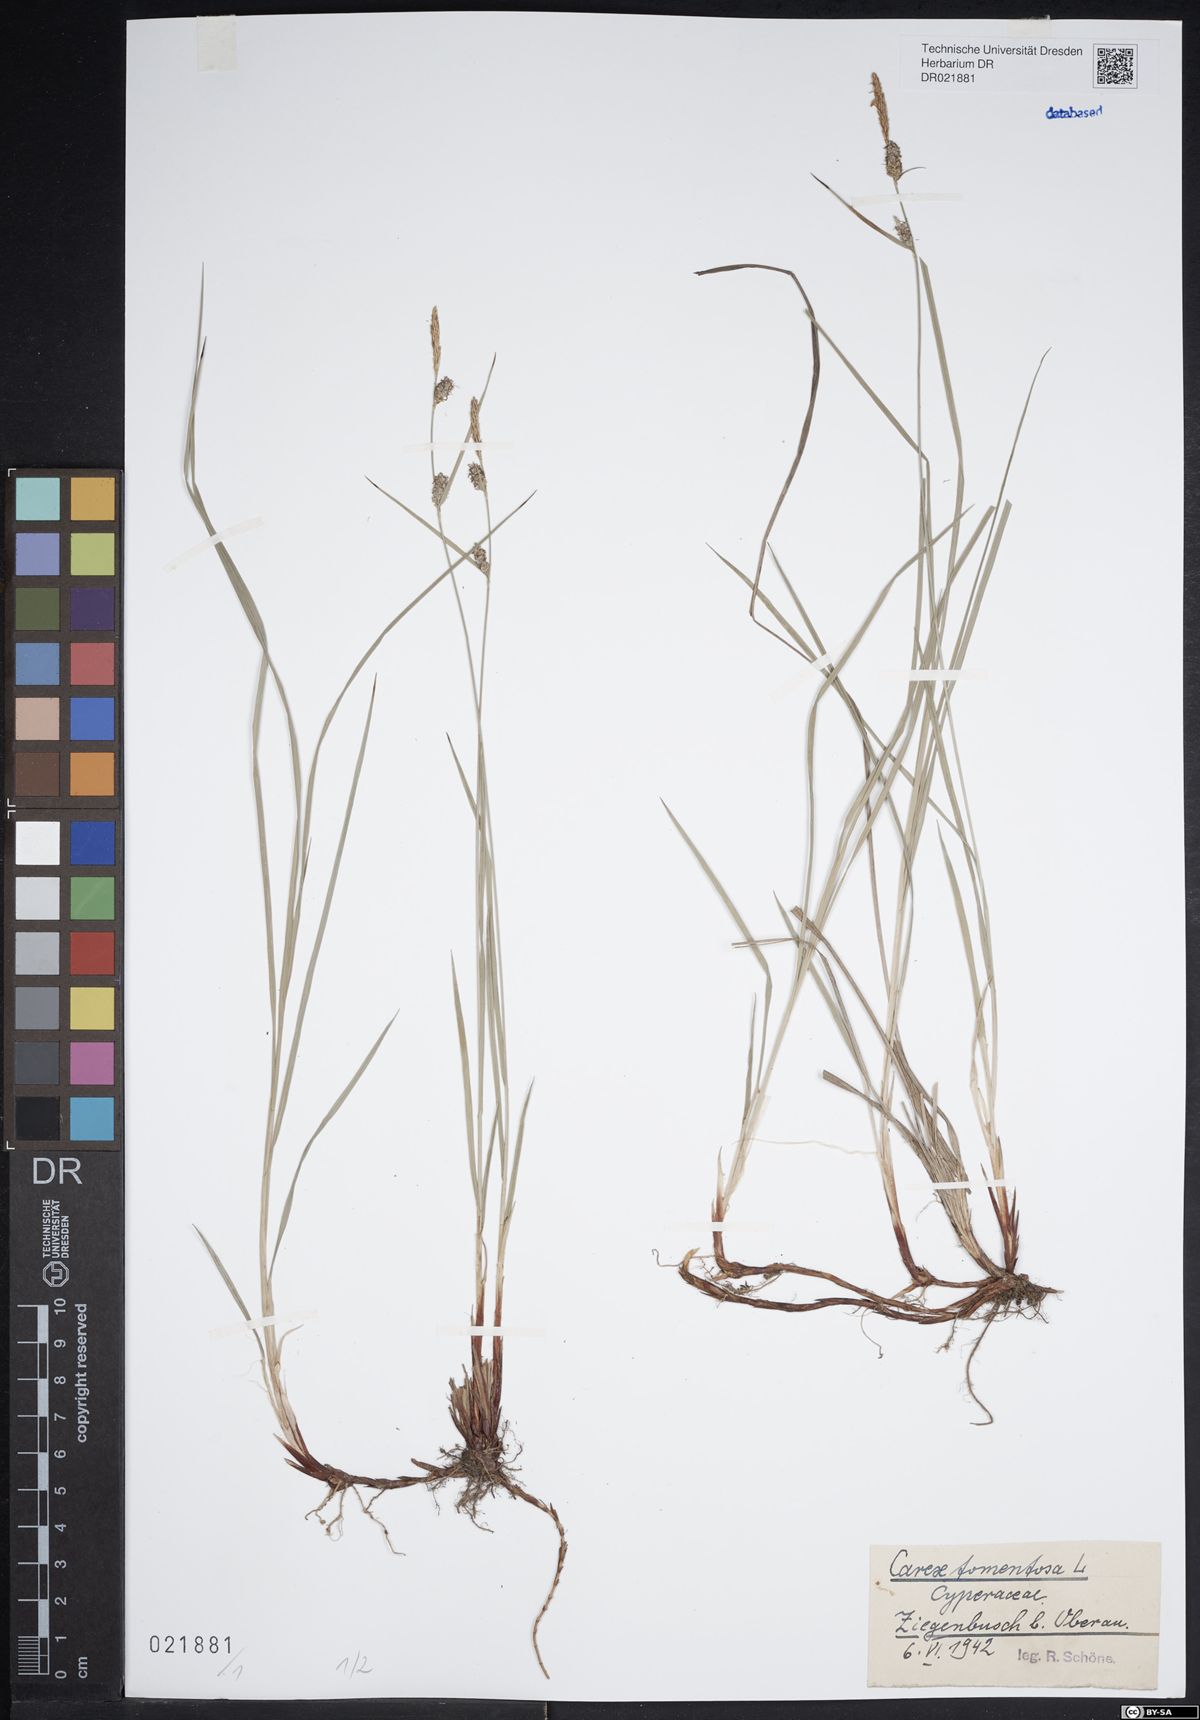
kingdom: Plantae
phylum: Tracheophyta
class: Liliopsida
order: Poales
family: Cyperaceae
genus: Carex
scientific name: Carex tomentosa
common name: Downy-fruited sedge
